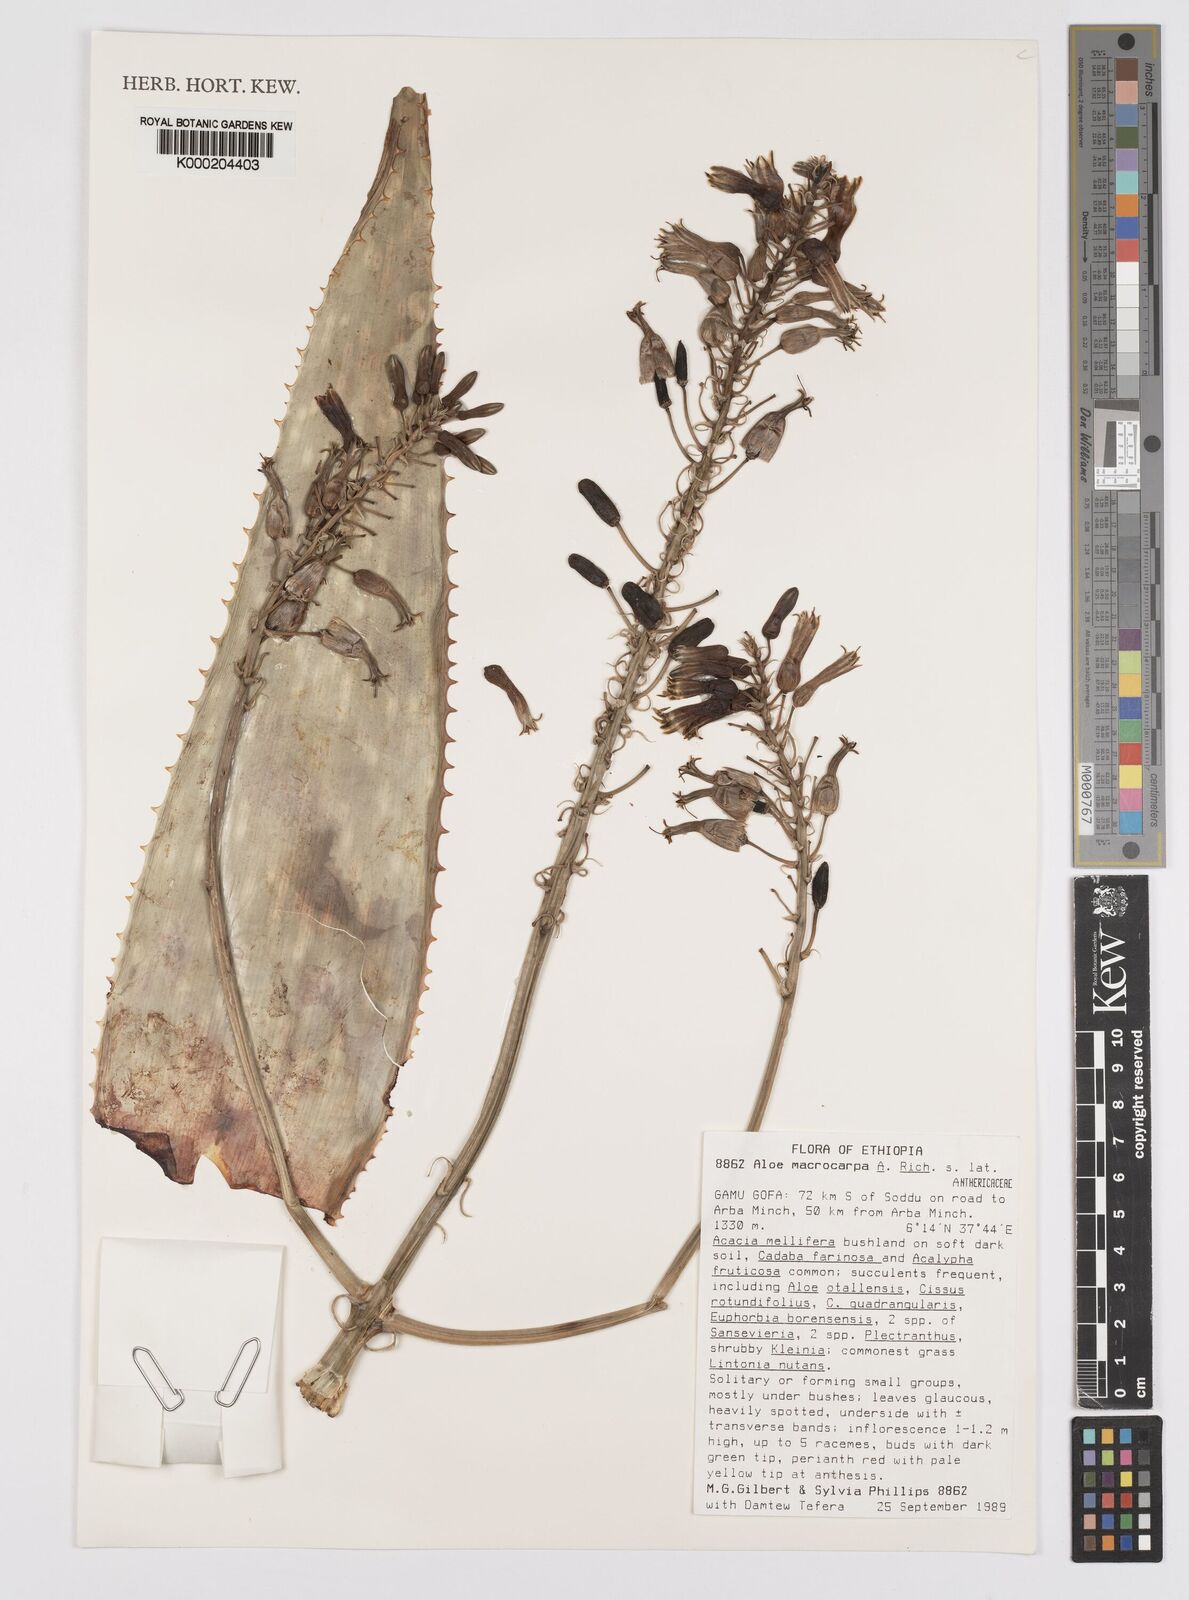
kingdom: Plantae
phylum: Tracheophyta
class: Liliopsida
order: Asparagales
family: Asphodelaceae
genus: Aloe
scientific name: Aloe macrocarpa
